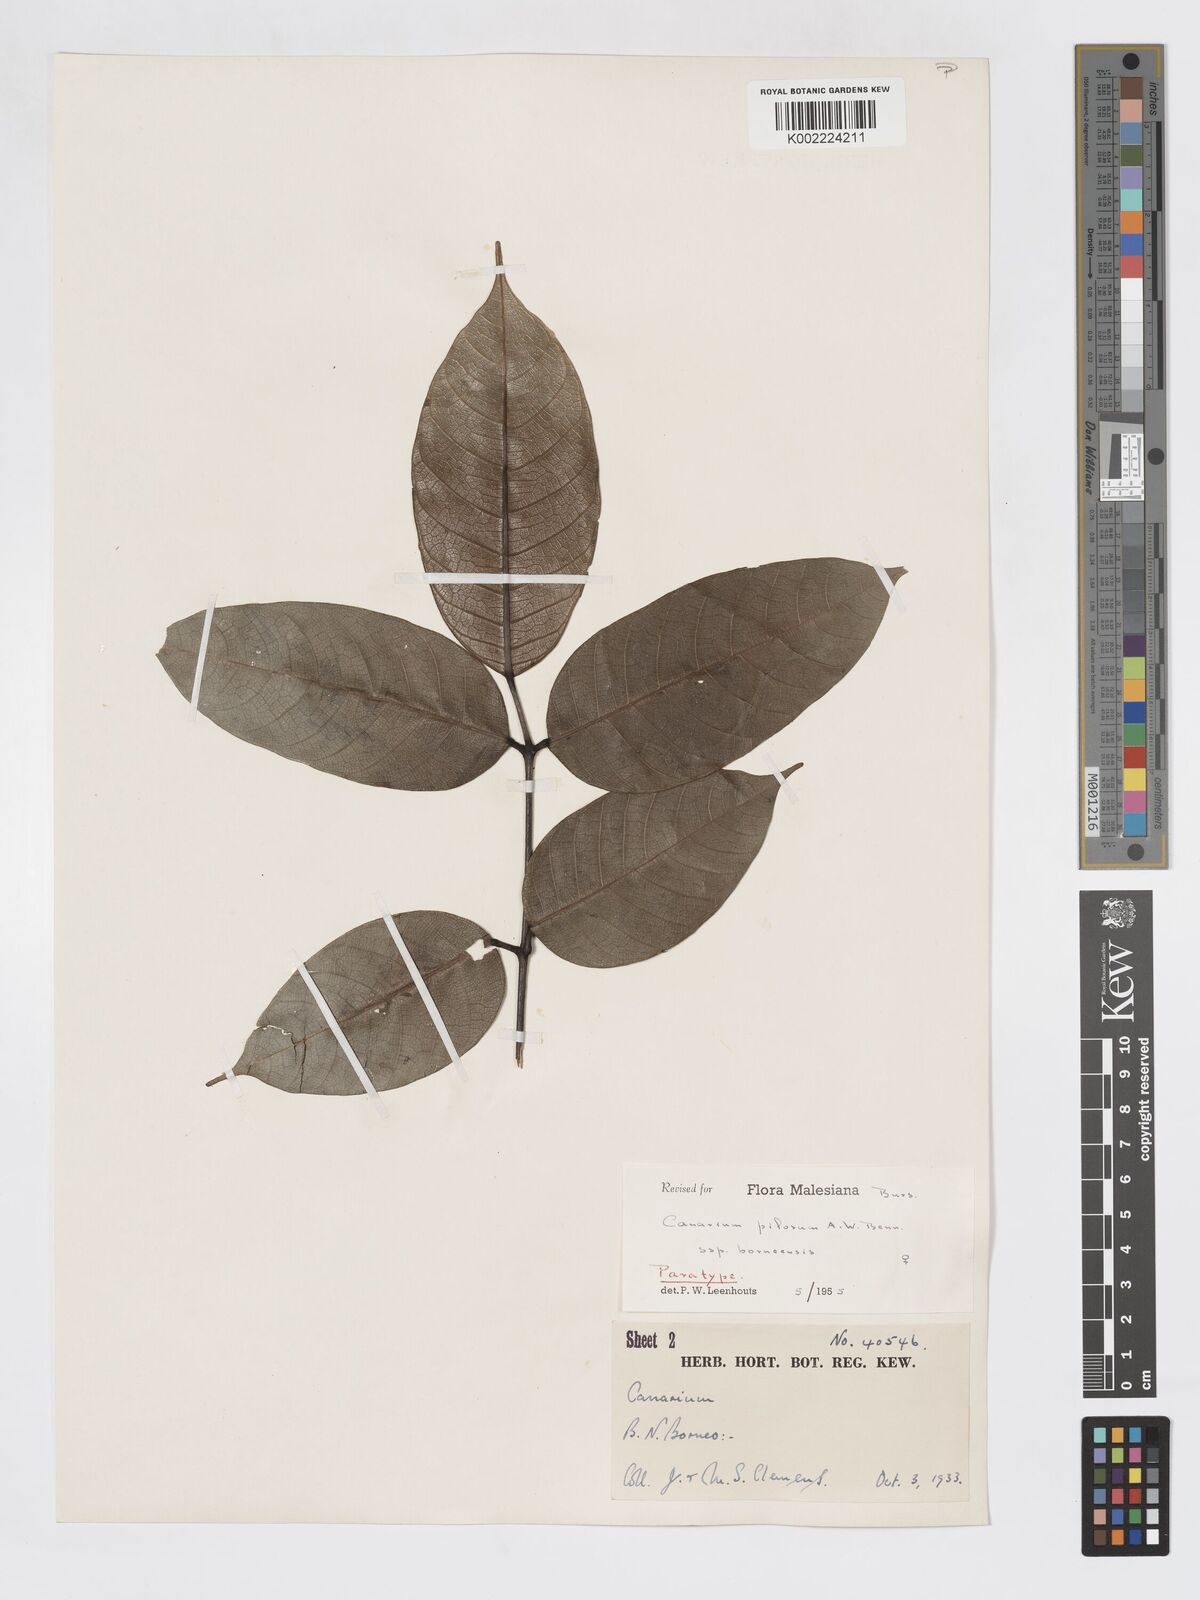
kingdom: Plantae
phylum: Tracheophyta
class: Magnoliopsida
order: Sapindales
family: Burseraceae
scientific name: Burseraceae
